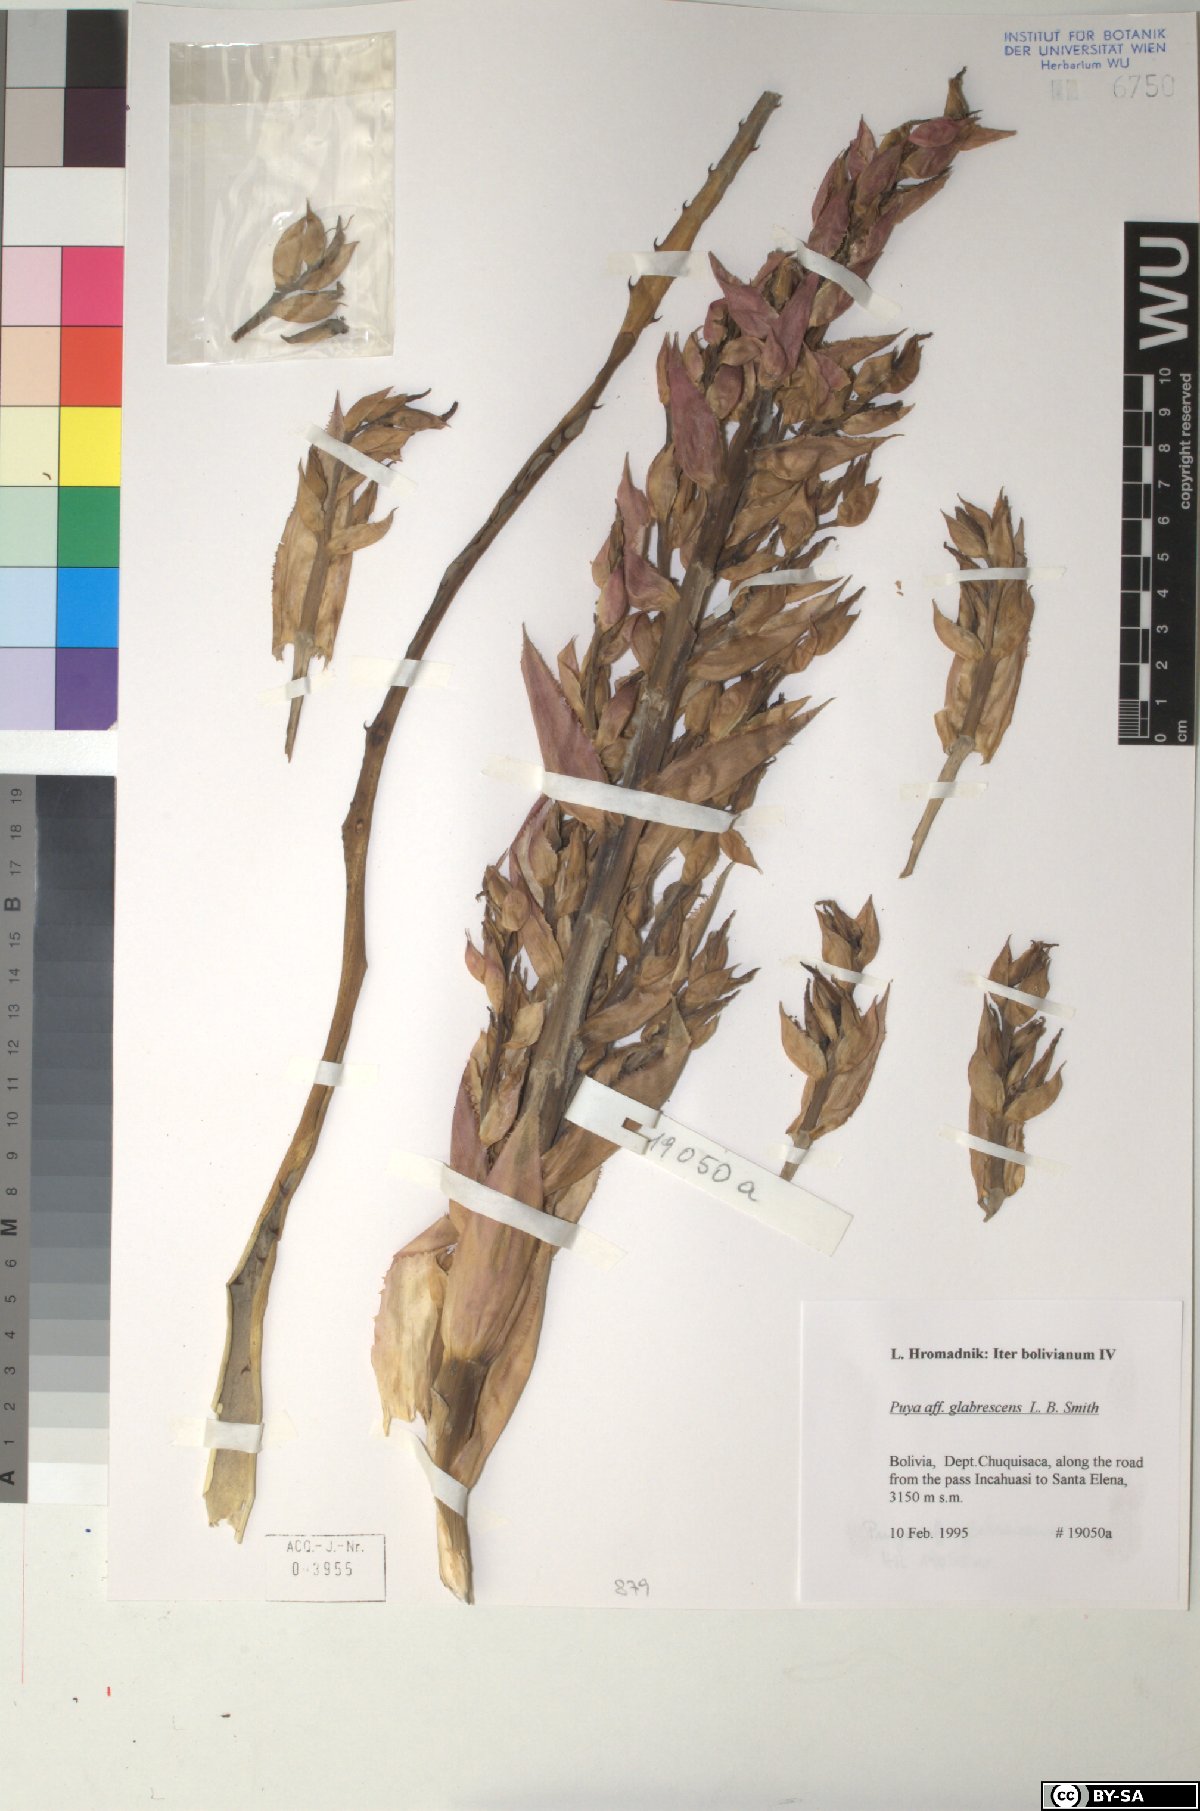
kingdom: Plantae
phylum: Tracheophyta
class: Liliopsida
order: Poales
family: Bromeliaceae
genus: Puya
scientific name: Puya glabrescens
